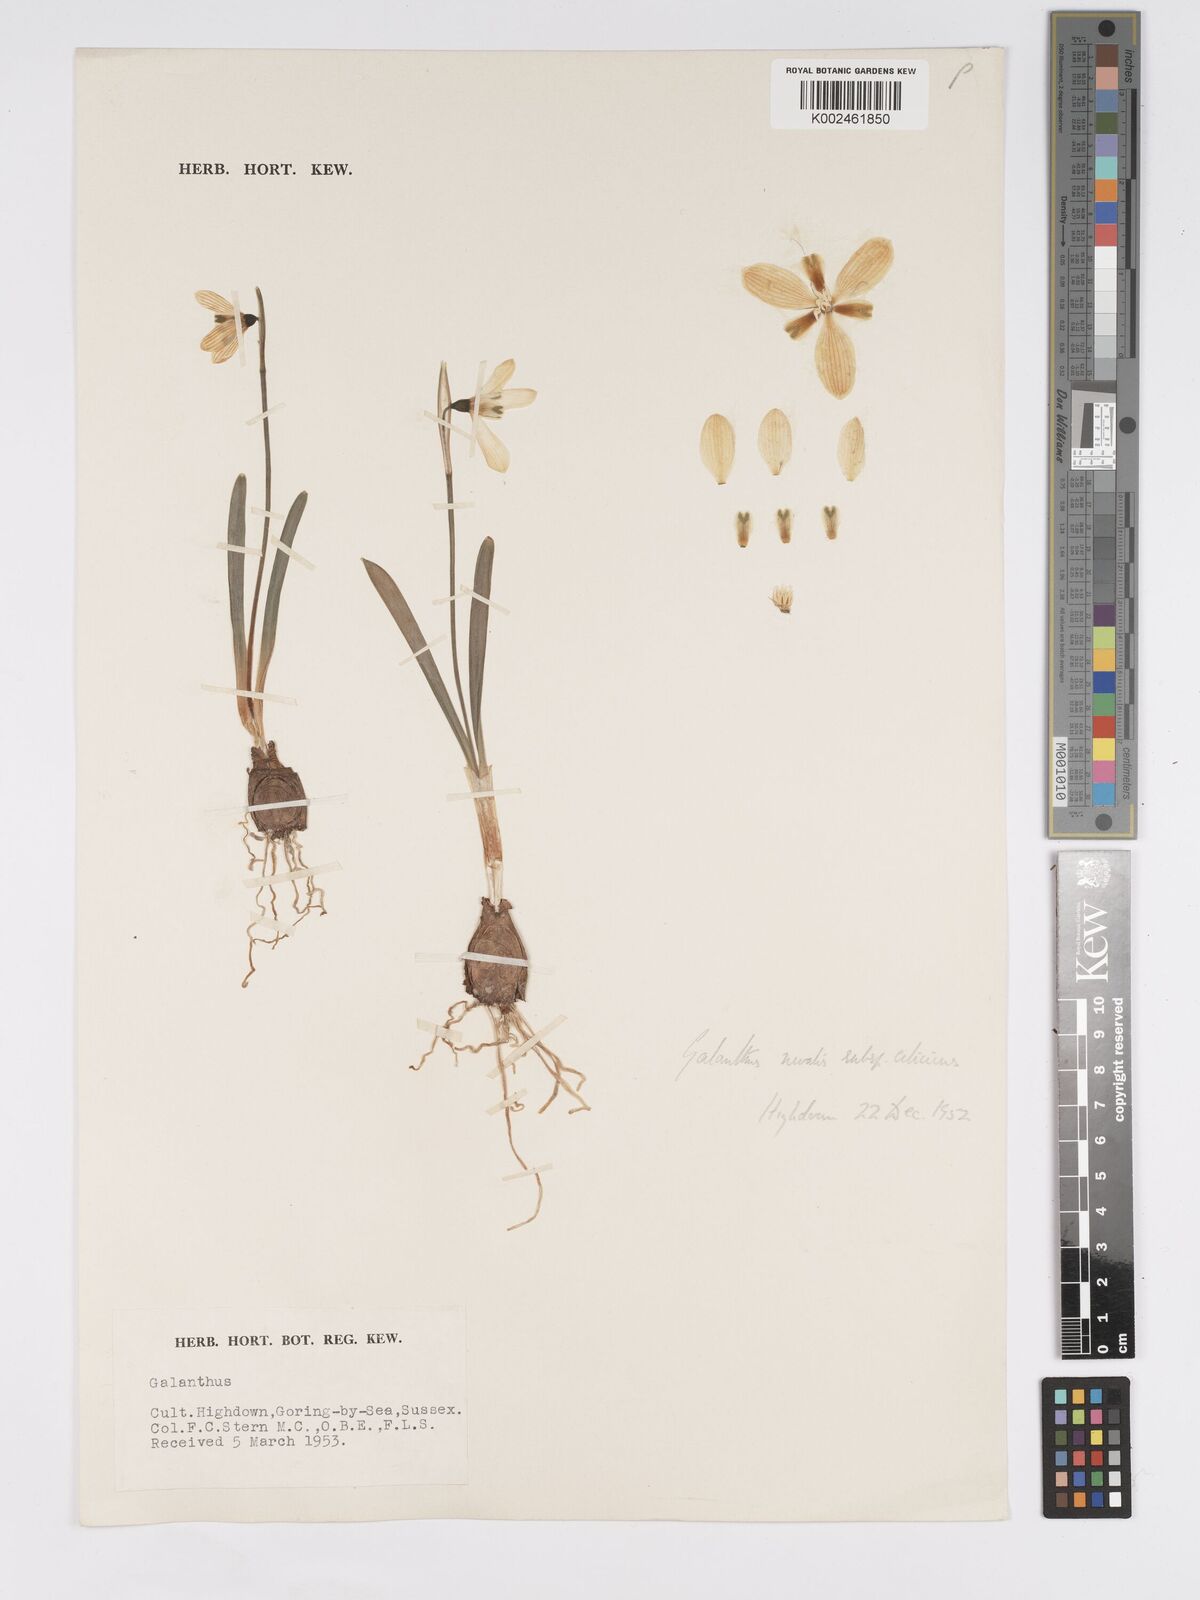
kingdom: Plantae
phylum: Tracheophyta
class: Liliopsida
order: Asparagales
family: Amaryllidaceae
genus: Galanthus
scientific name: Galanthus cilicicus
